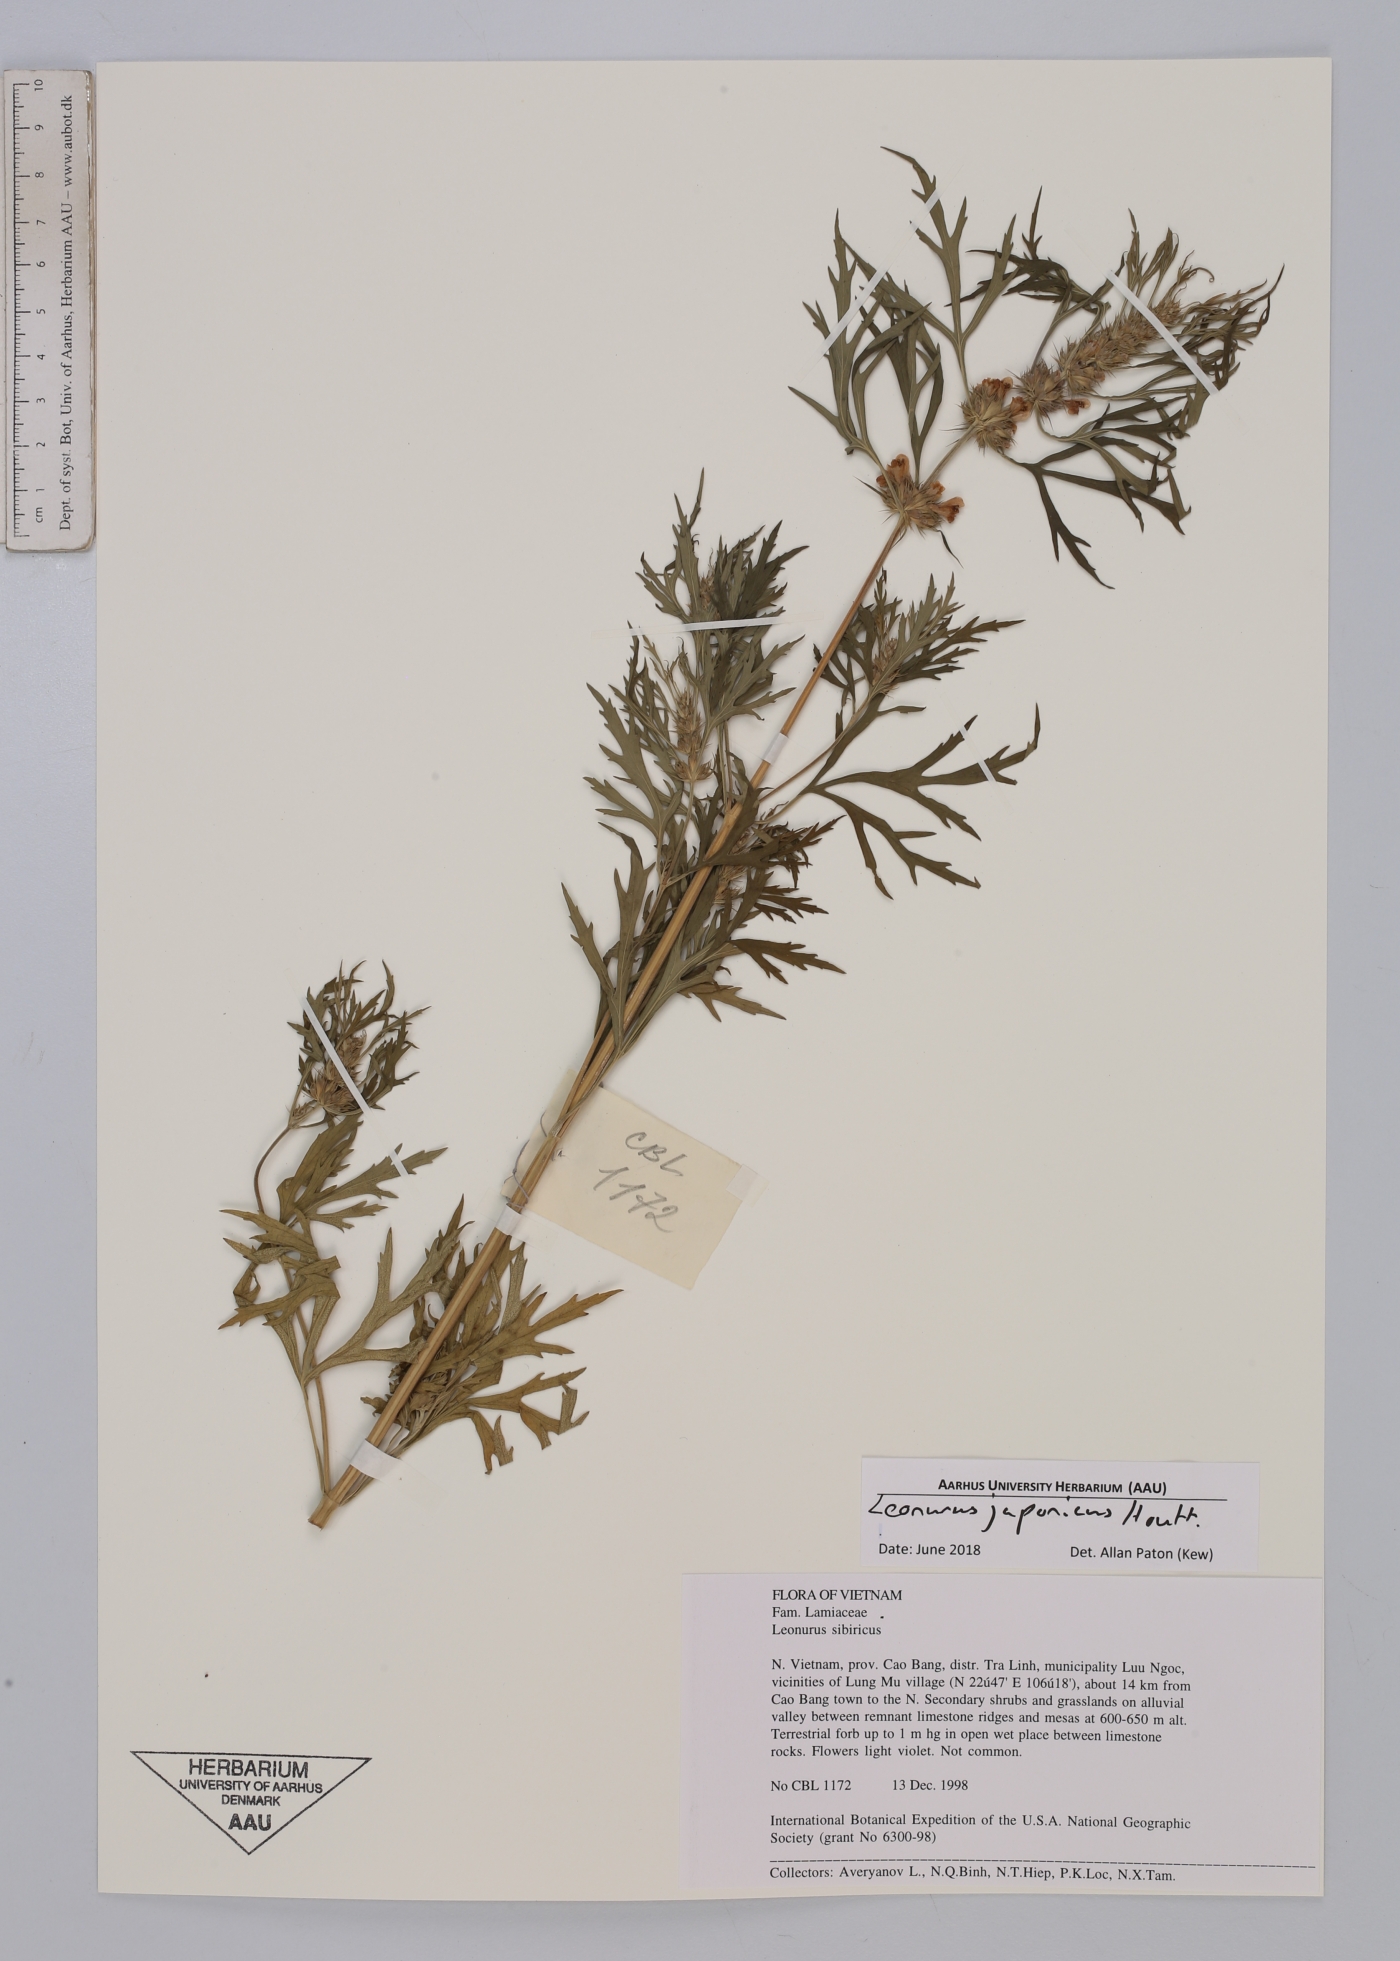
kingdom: Plantae
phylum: Tracheophyta
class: Magnoliopsida
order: Lamiales
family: Lamiaceae
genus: Leonurus
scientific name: Leonurus japonicus
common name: Honeyweed
